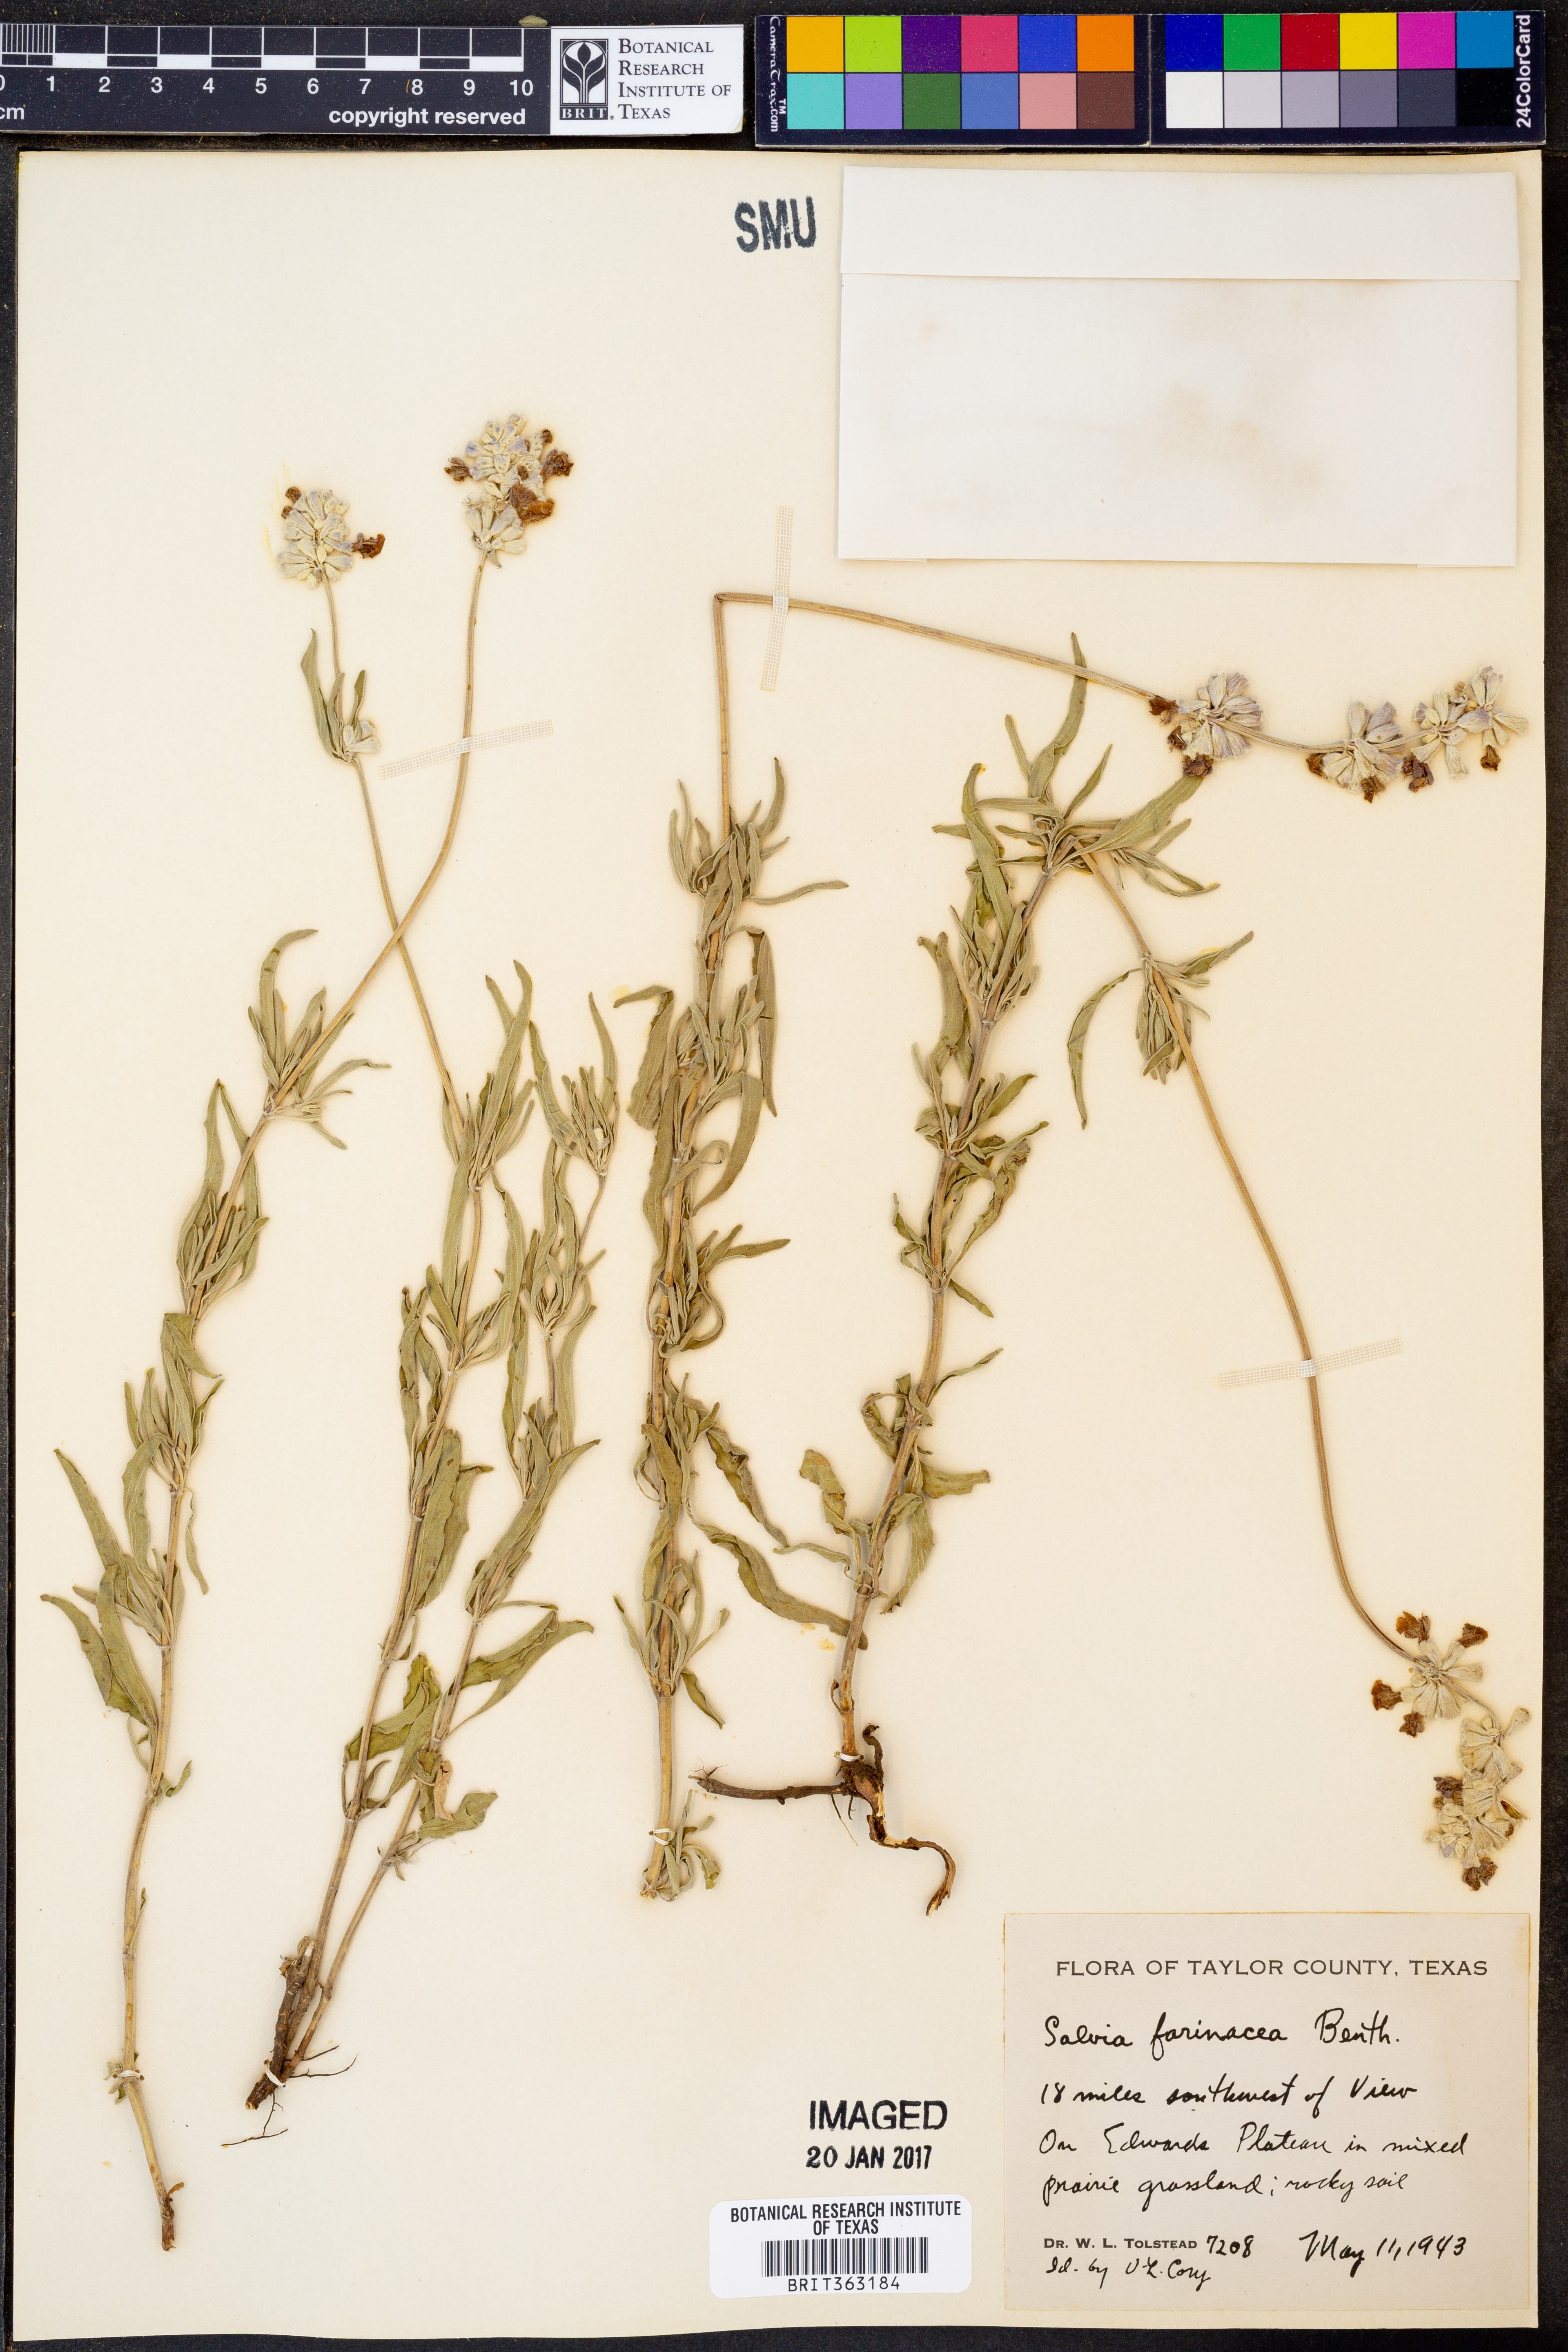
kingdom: Plantae
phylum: Tracheophyta
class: Magnoliopsida
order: Lamiales
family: Lamiaceae
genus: Salvia
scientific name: Salvia farinacea
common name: Mealy sage
